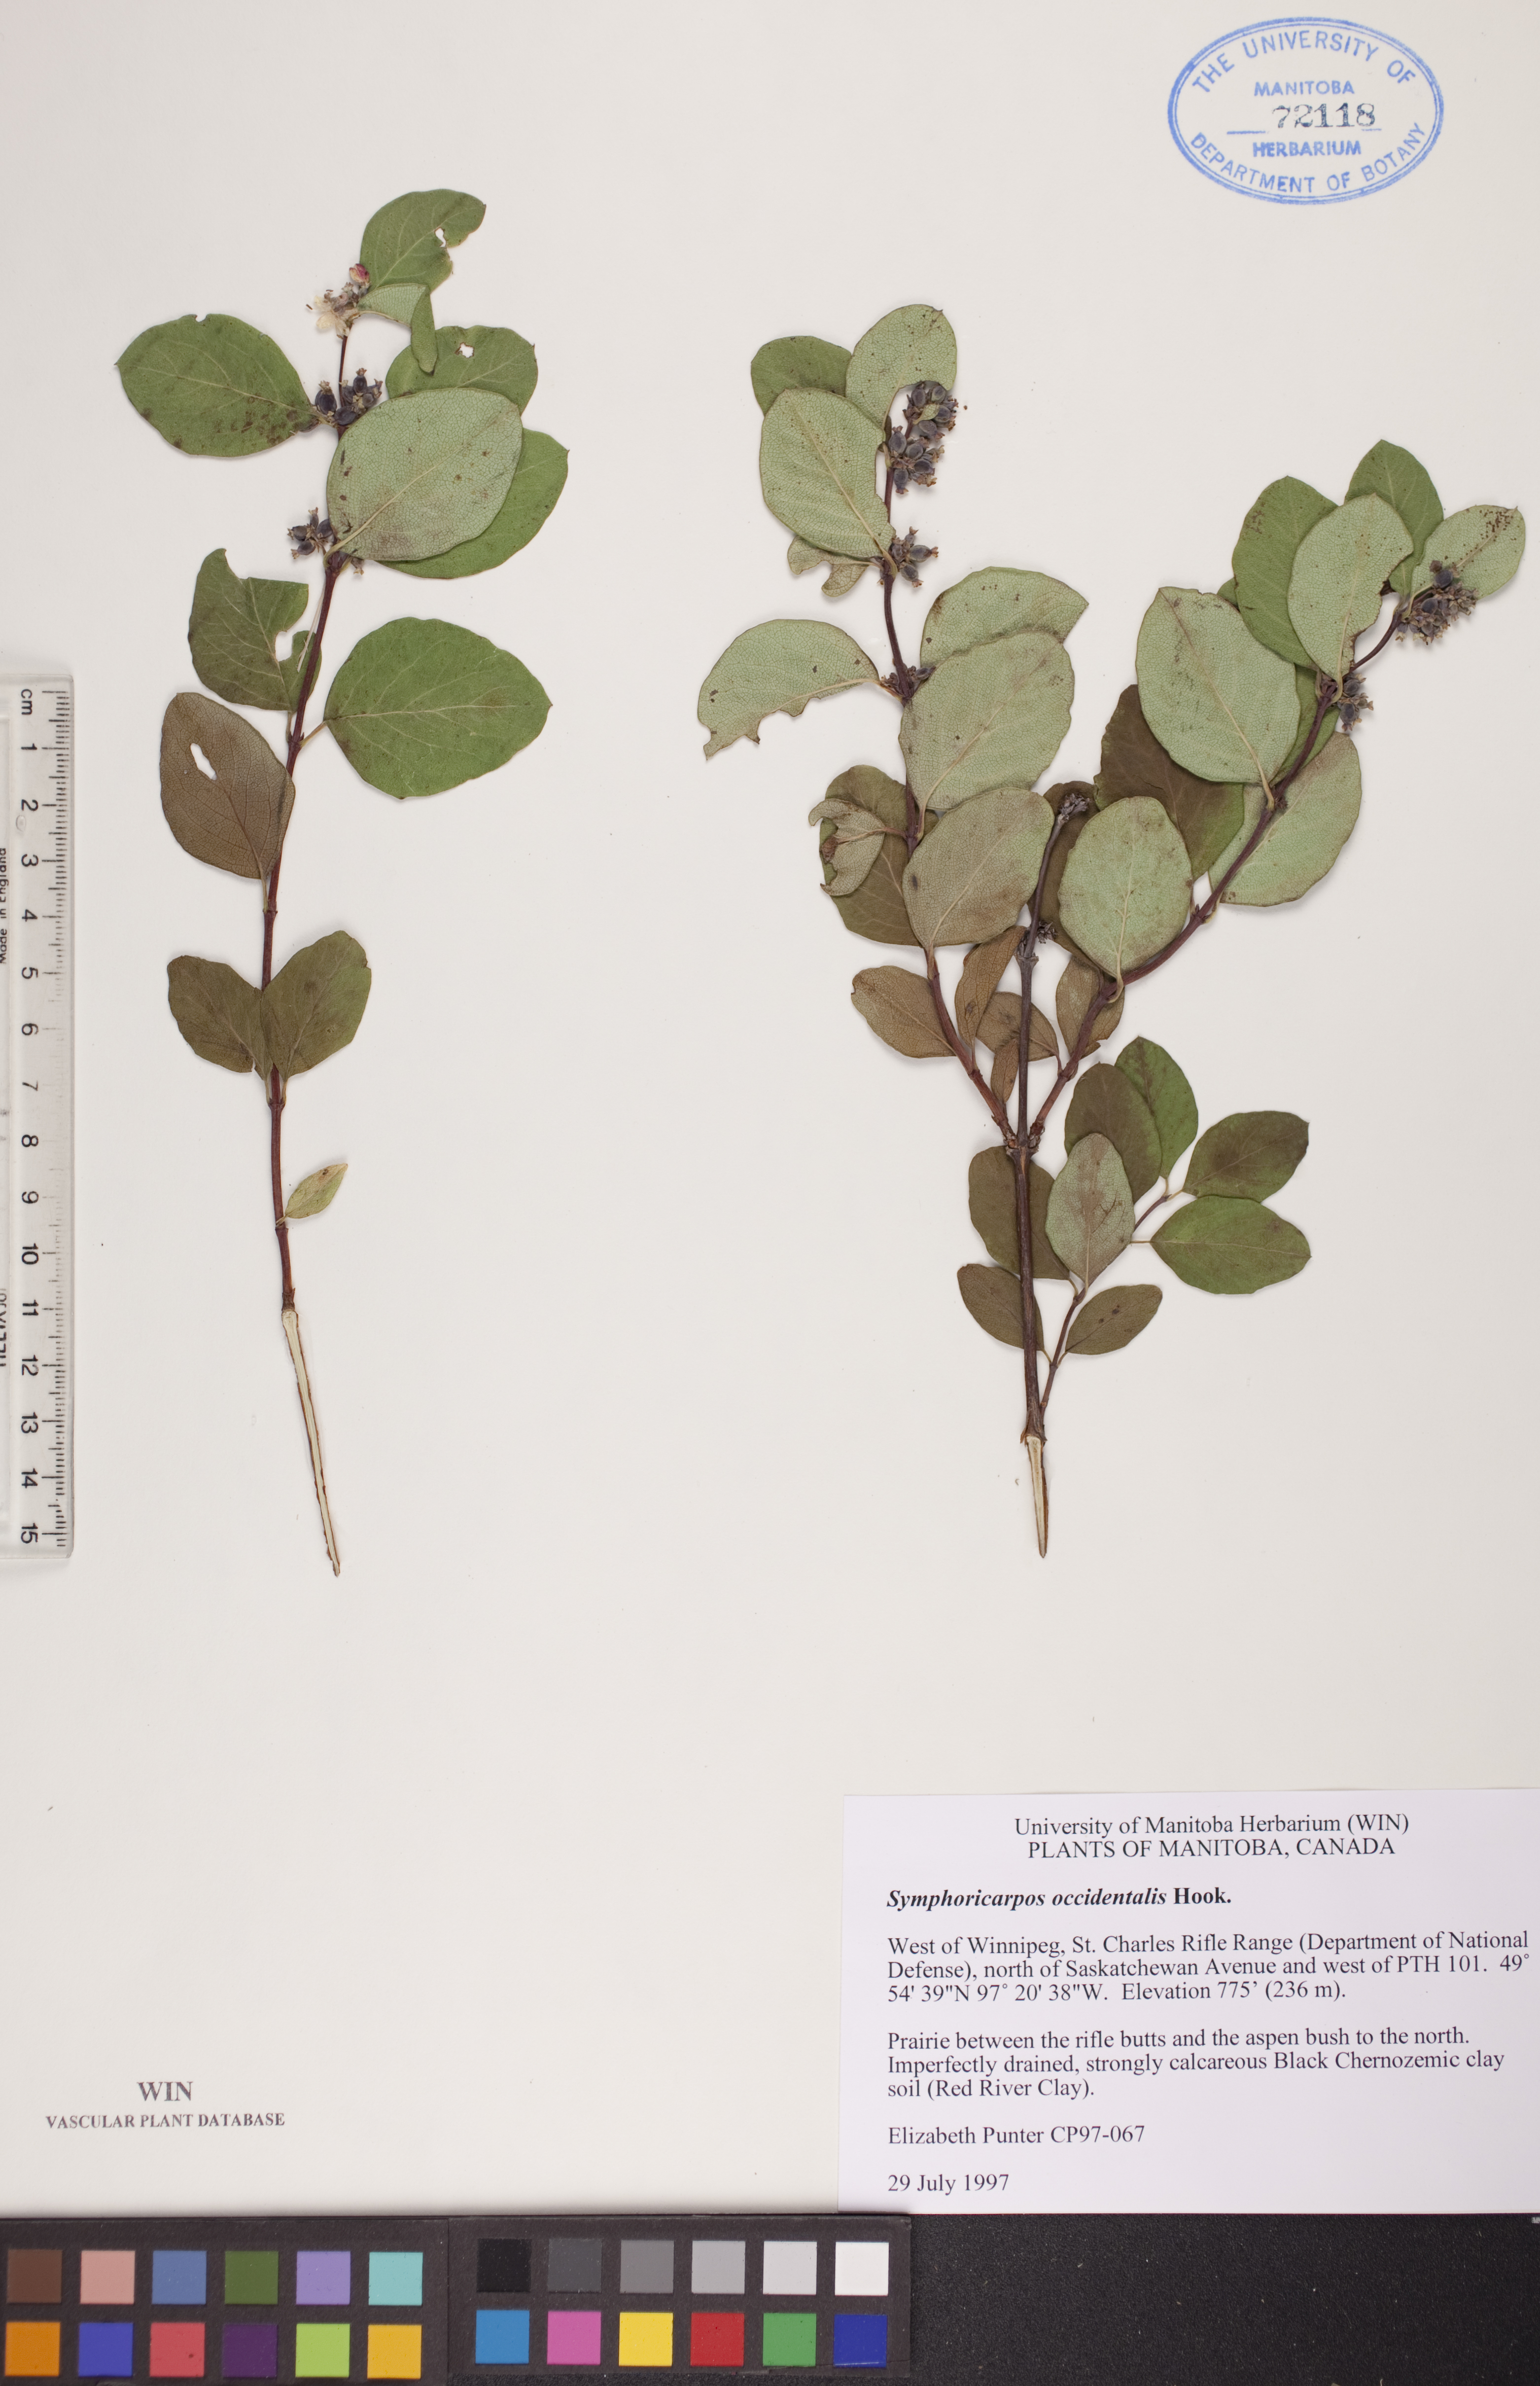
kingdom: Plantae
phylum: Tracheophyta
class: Magnoliopsida
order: Dipsacales
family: Caprifoliaceae
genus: Symphoricarpos
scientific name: Symphoricarpos occidentalis
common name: Wolfberry
